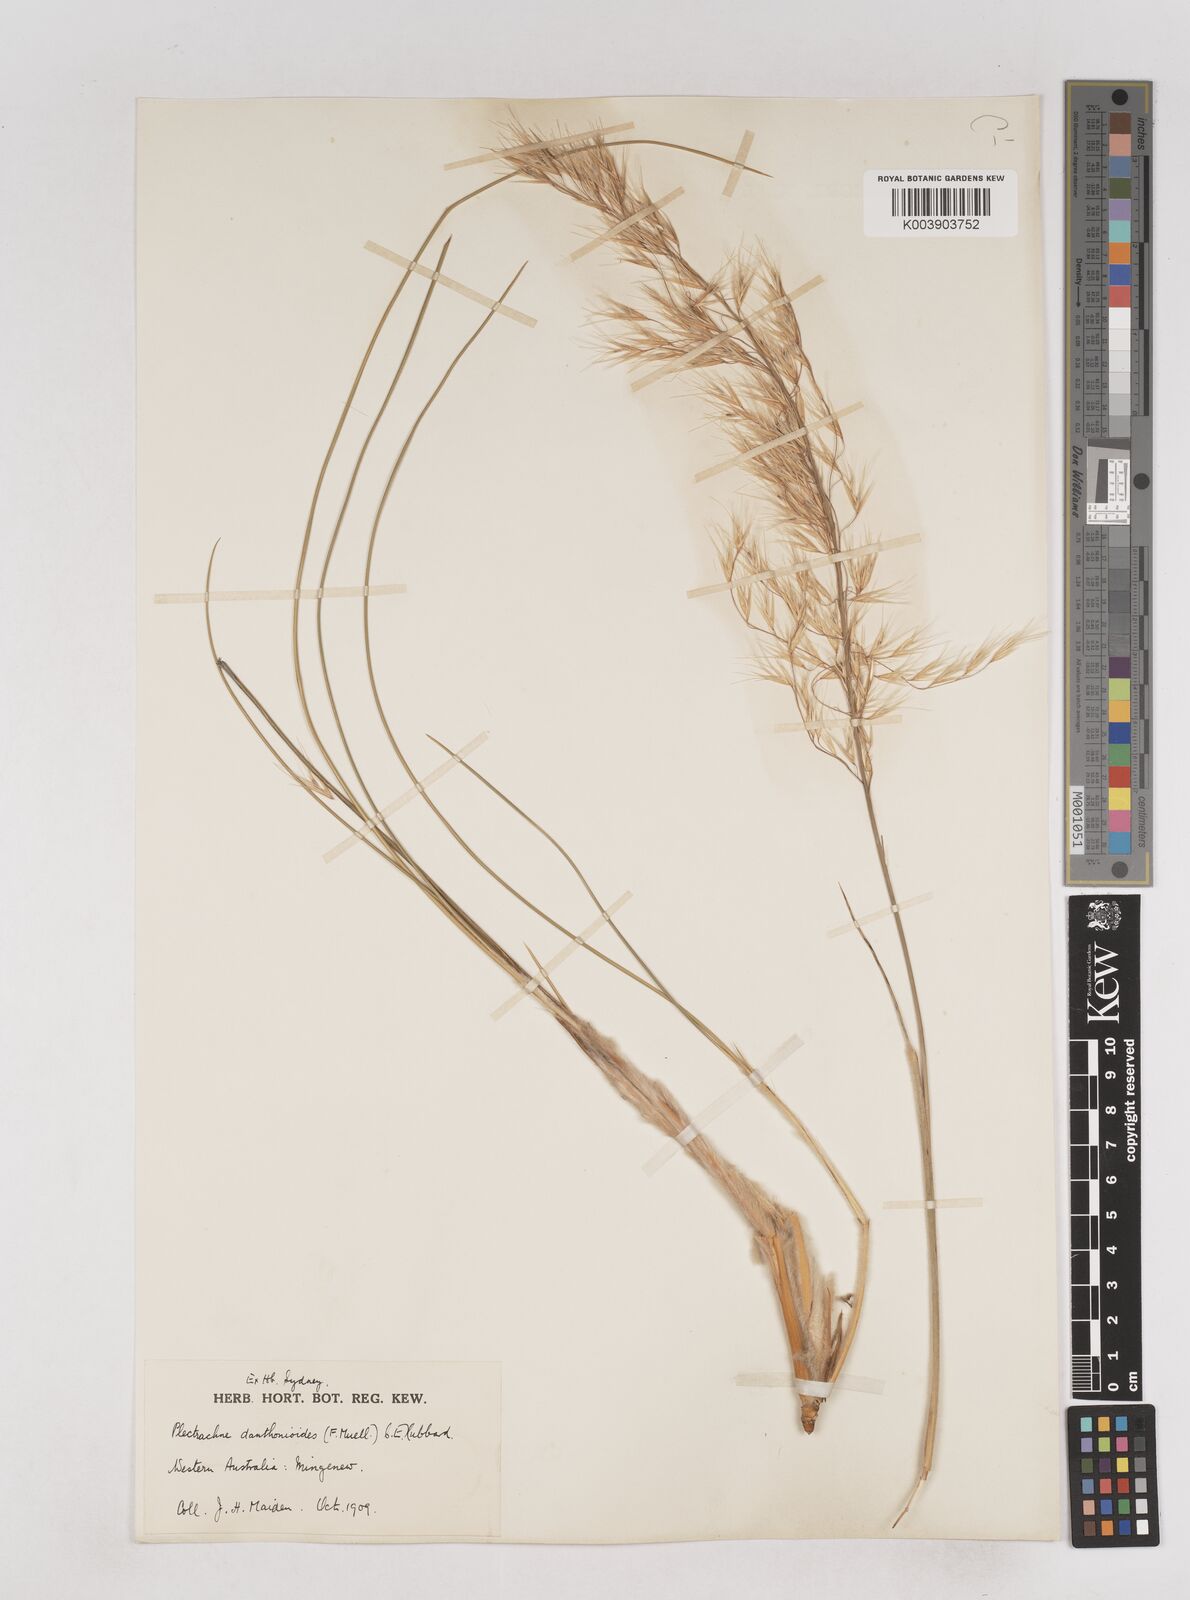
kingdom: Plantae
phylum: Tracheophyta
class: Liliopsida
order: Poales
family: Poaceae
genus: Triodia
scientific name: Triodia danthonioides
